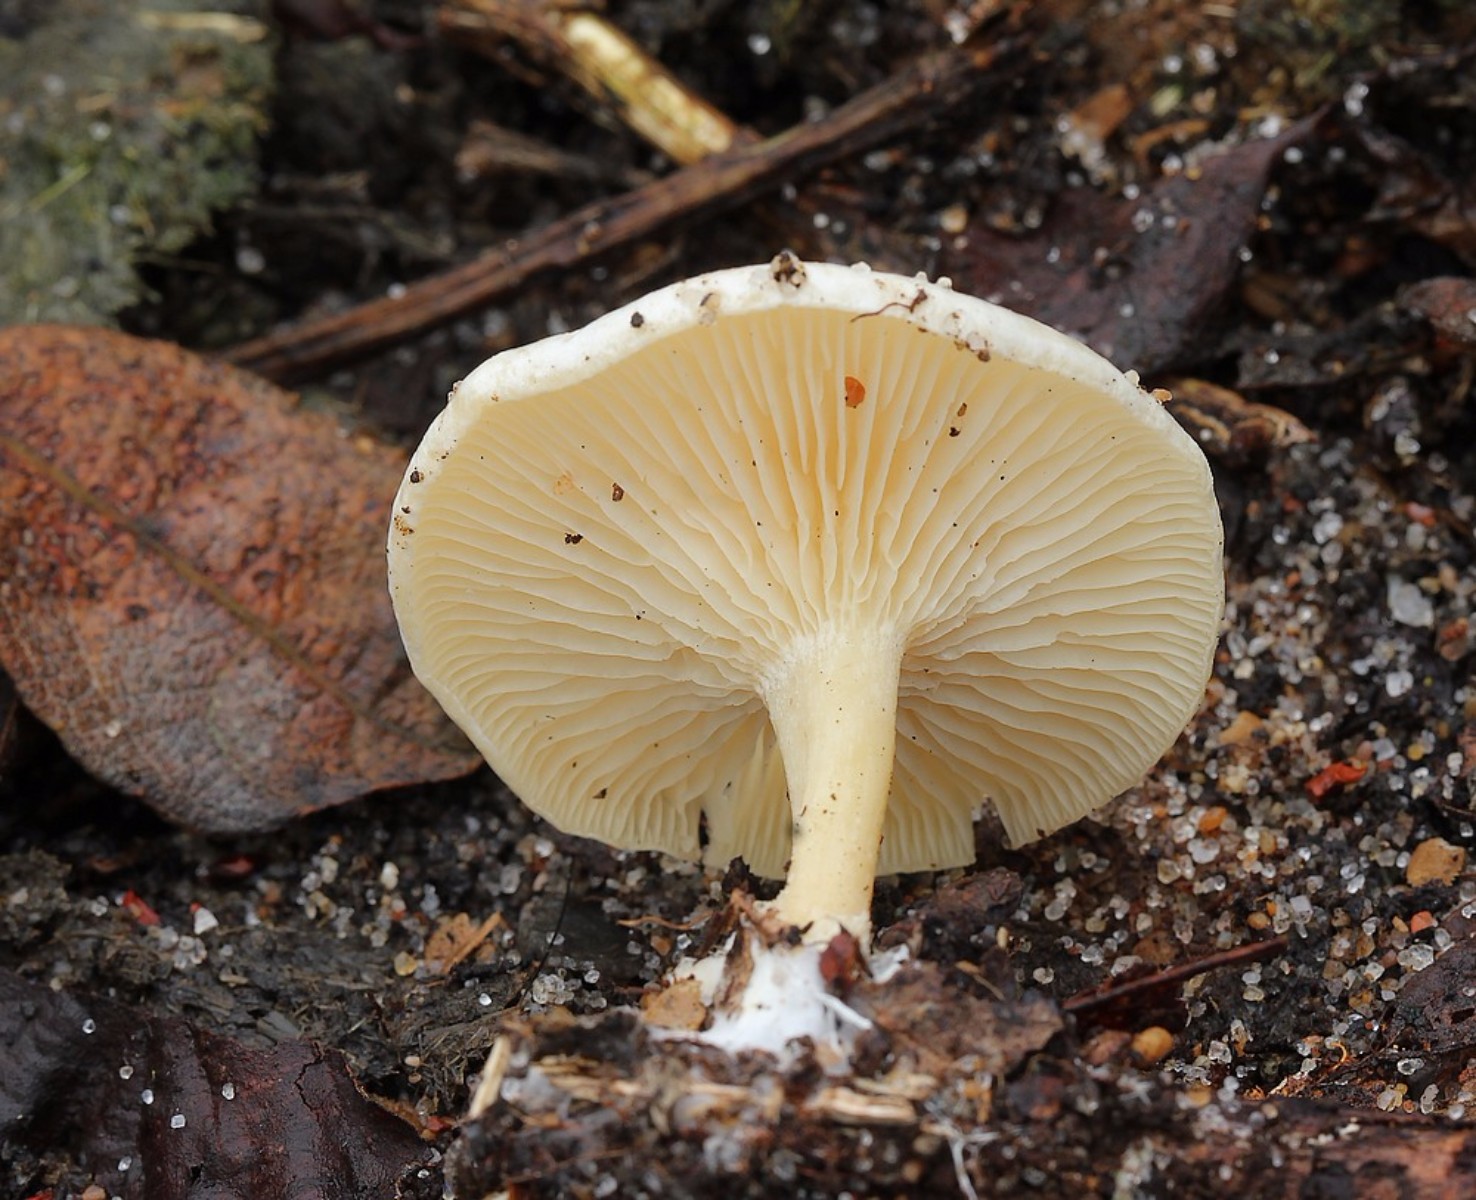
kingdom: Fungi
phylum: Basidiomycota
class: Agaricomycetes
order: Agaricales
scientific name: Agaricales
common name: champignonordenen
